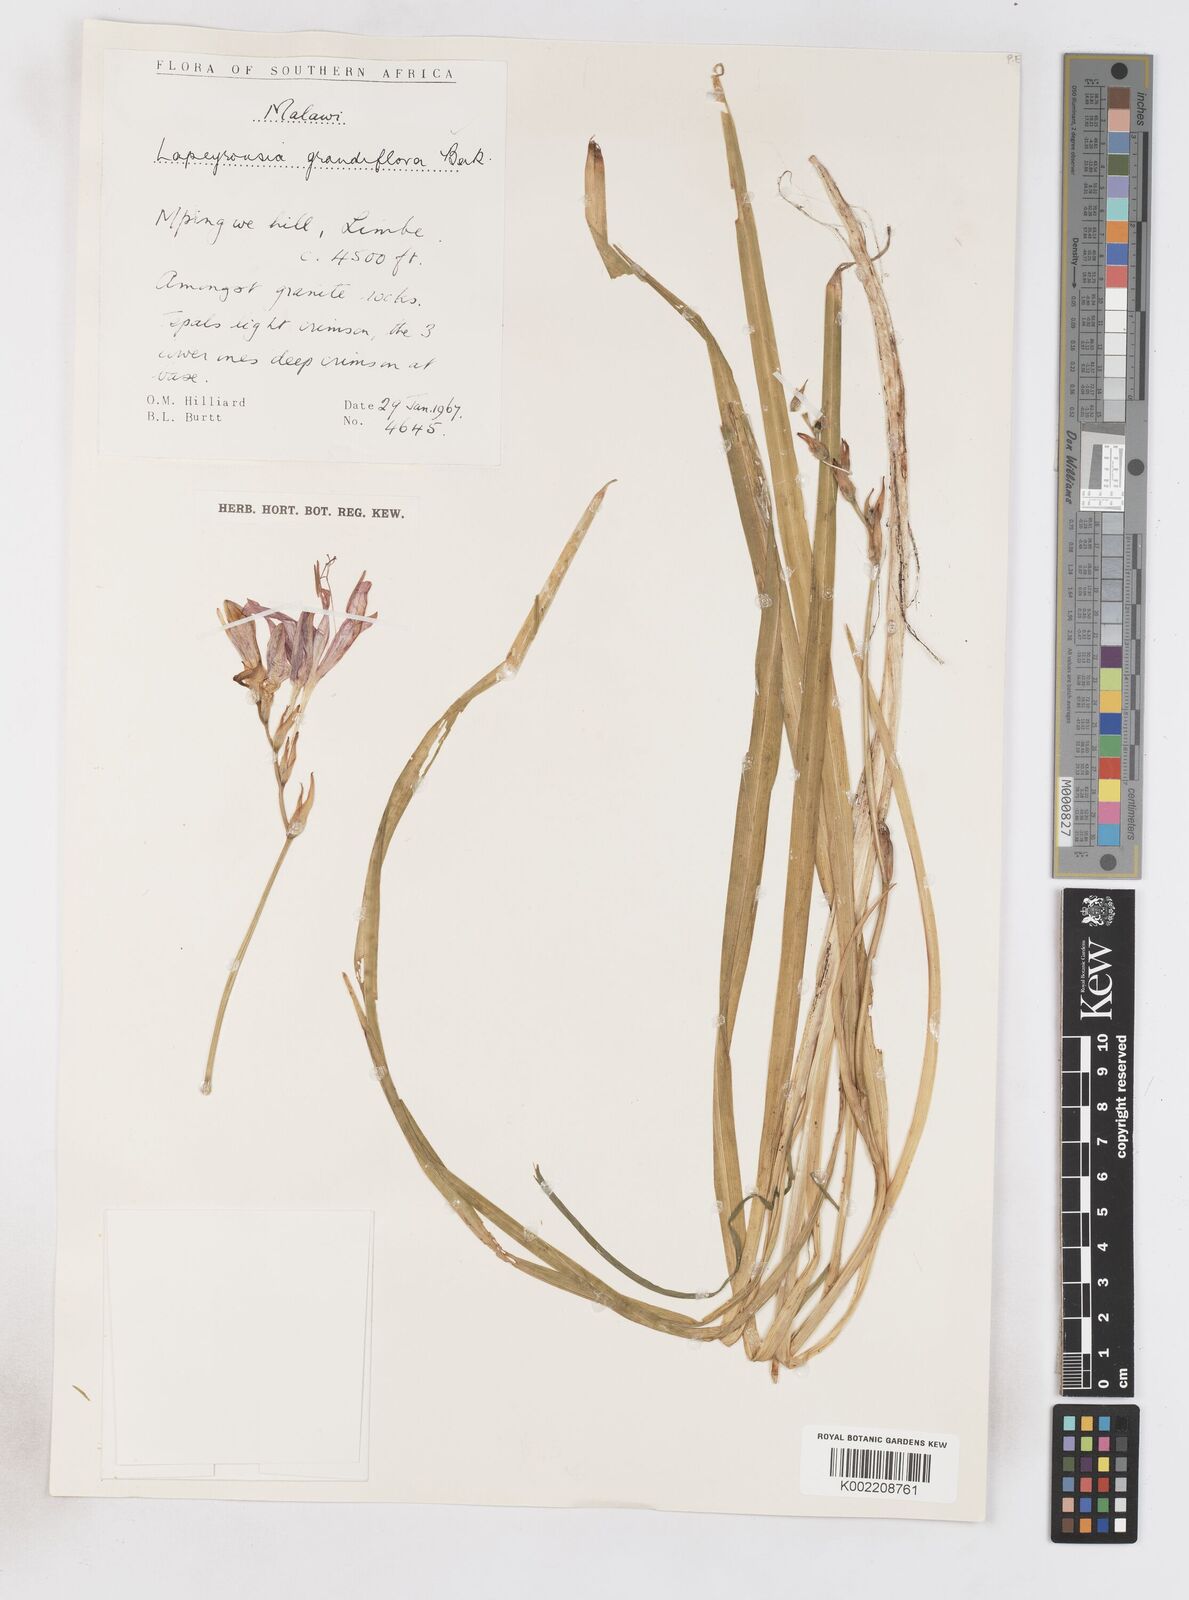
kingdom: Plantae
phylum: Tracheophyta
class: Liliopsida
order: Asparagales
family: Iridaceae
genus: Freesia
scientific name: Freesia grandiflora
